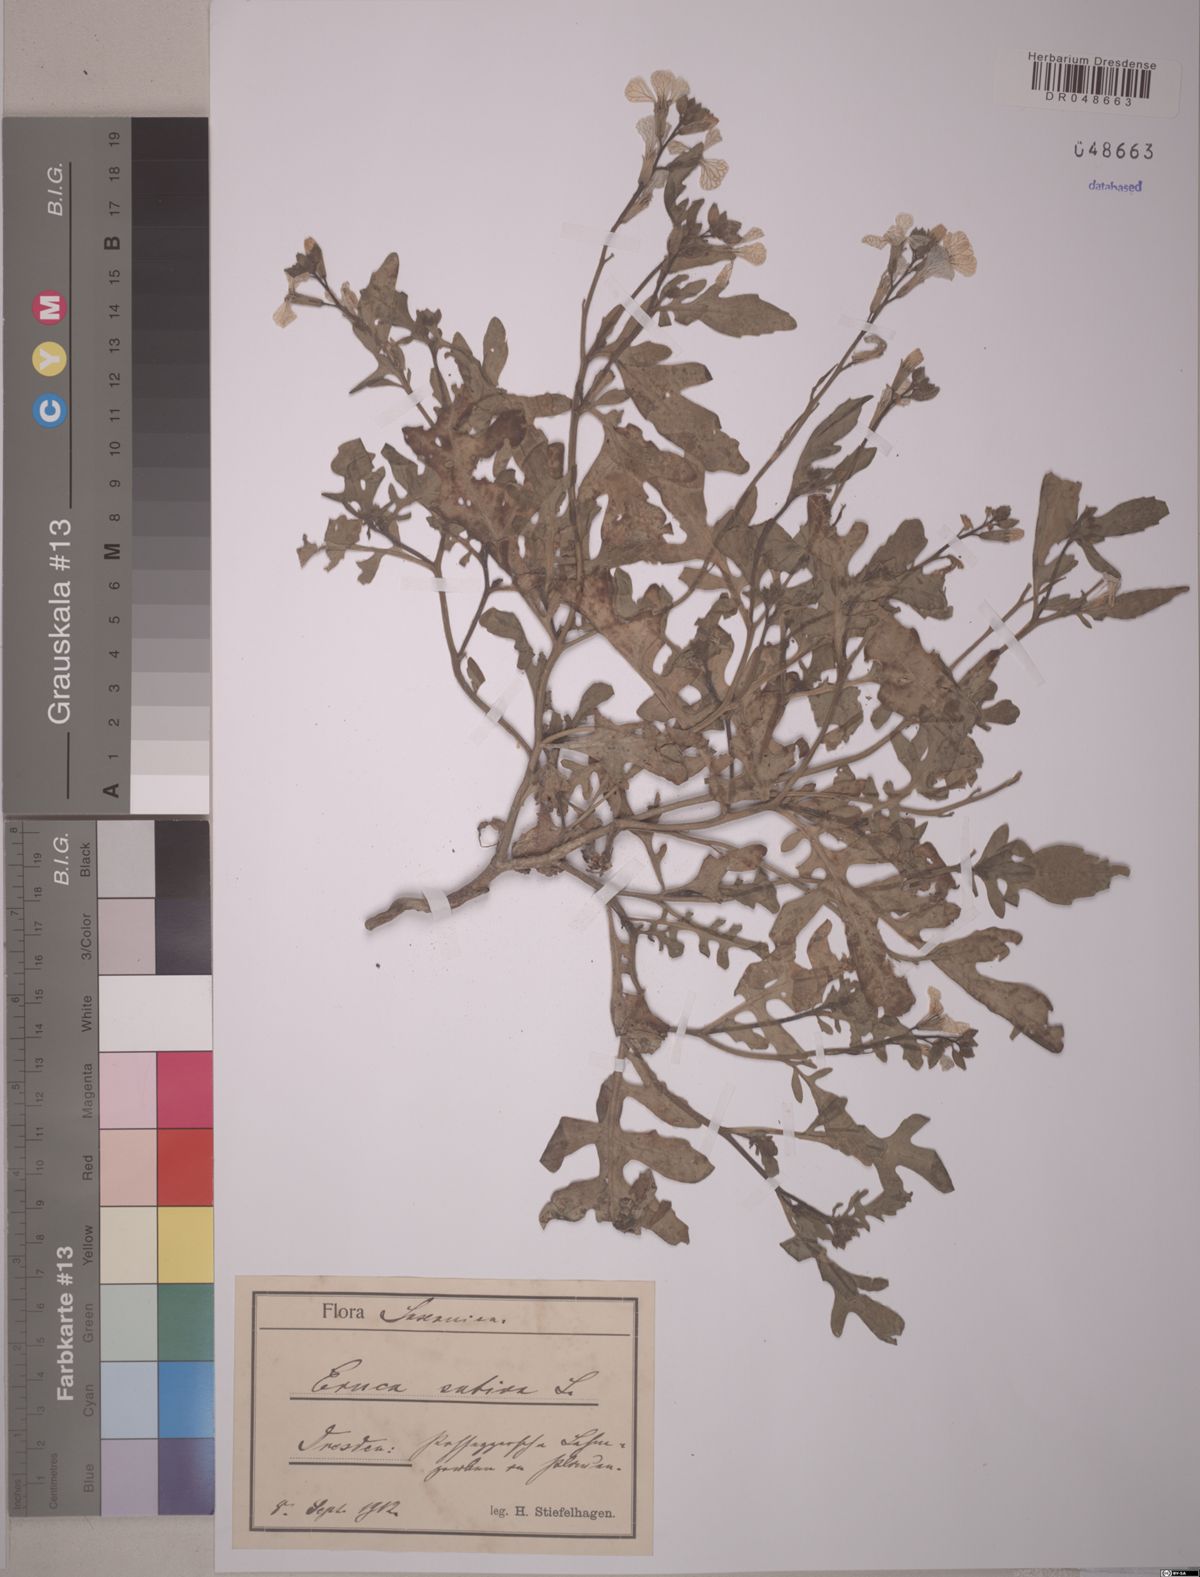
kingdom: Plantae
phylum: Tracheophyta
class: Magnoliopsida
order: Brassicales
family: Brassicaceae
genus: Eruca
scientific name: Eruca vesicaria
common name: Garden rocket
